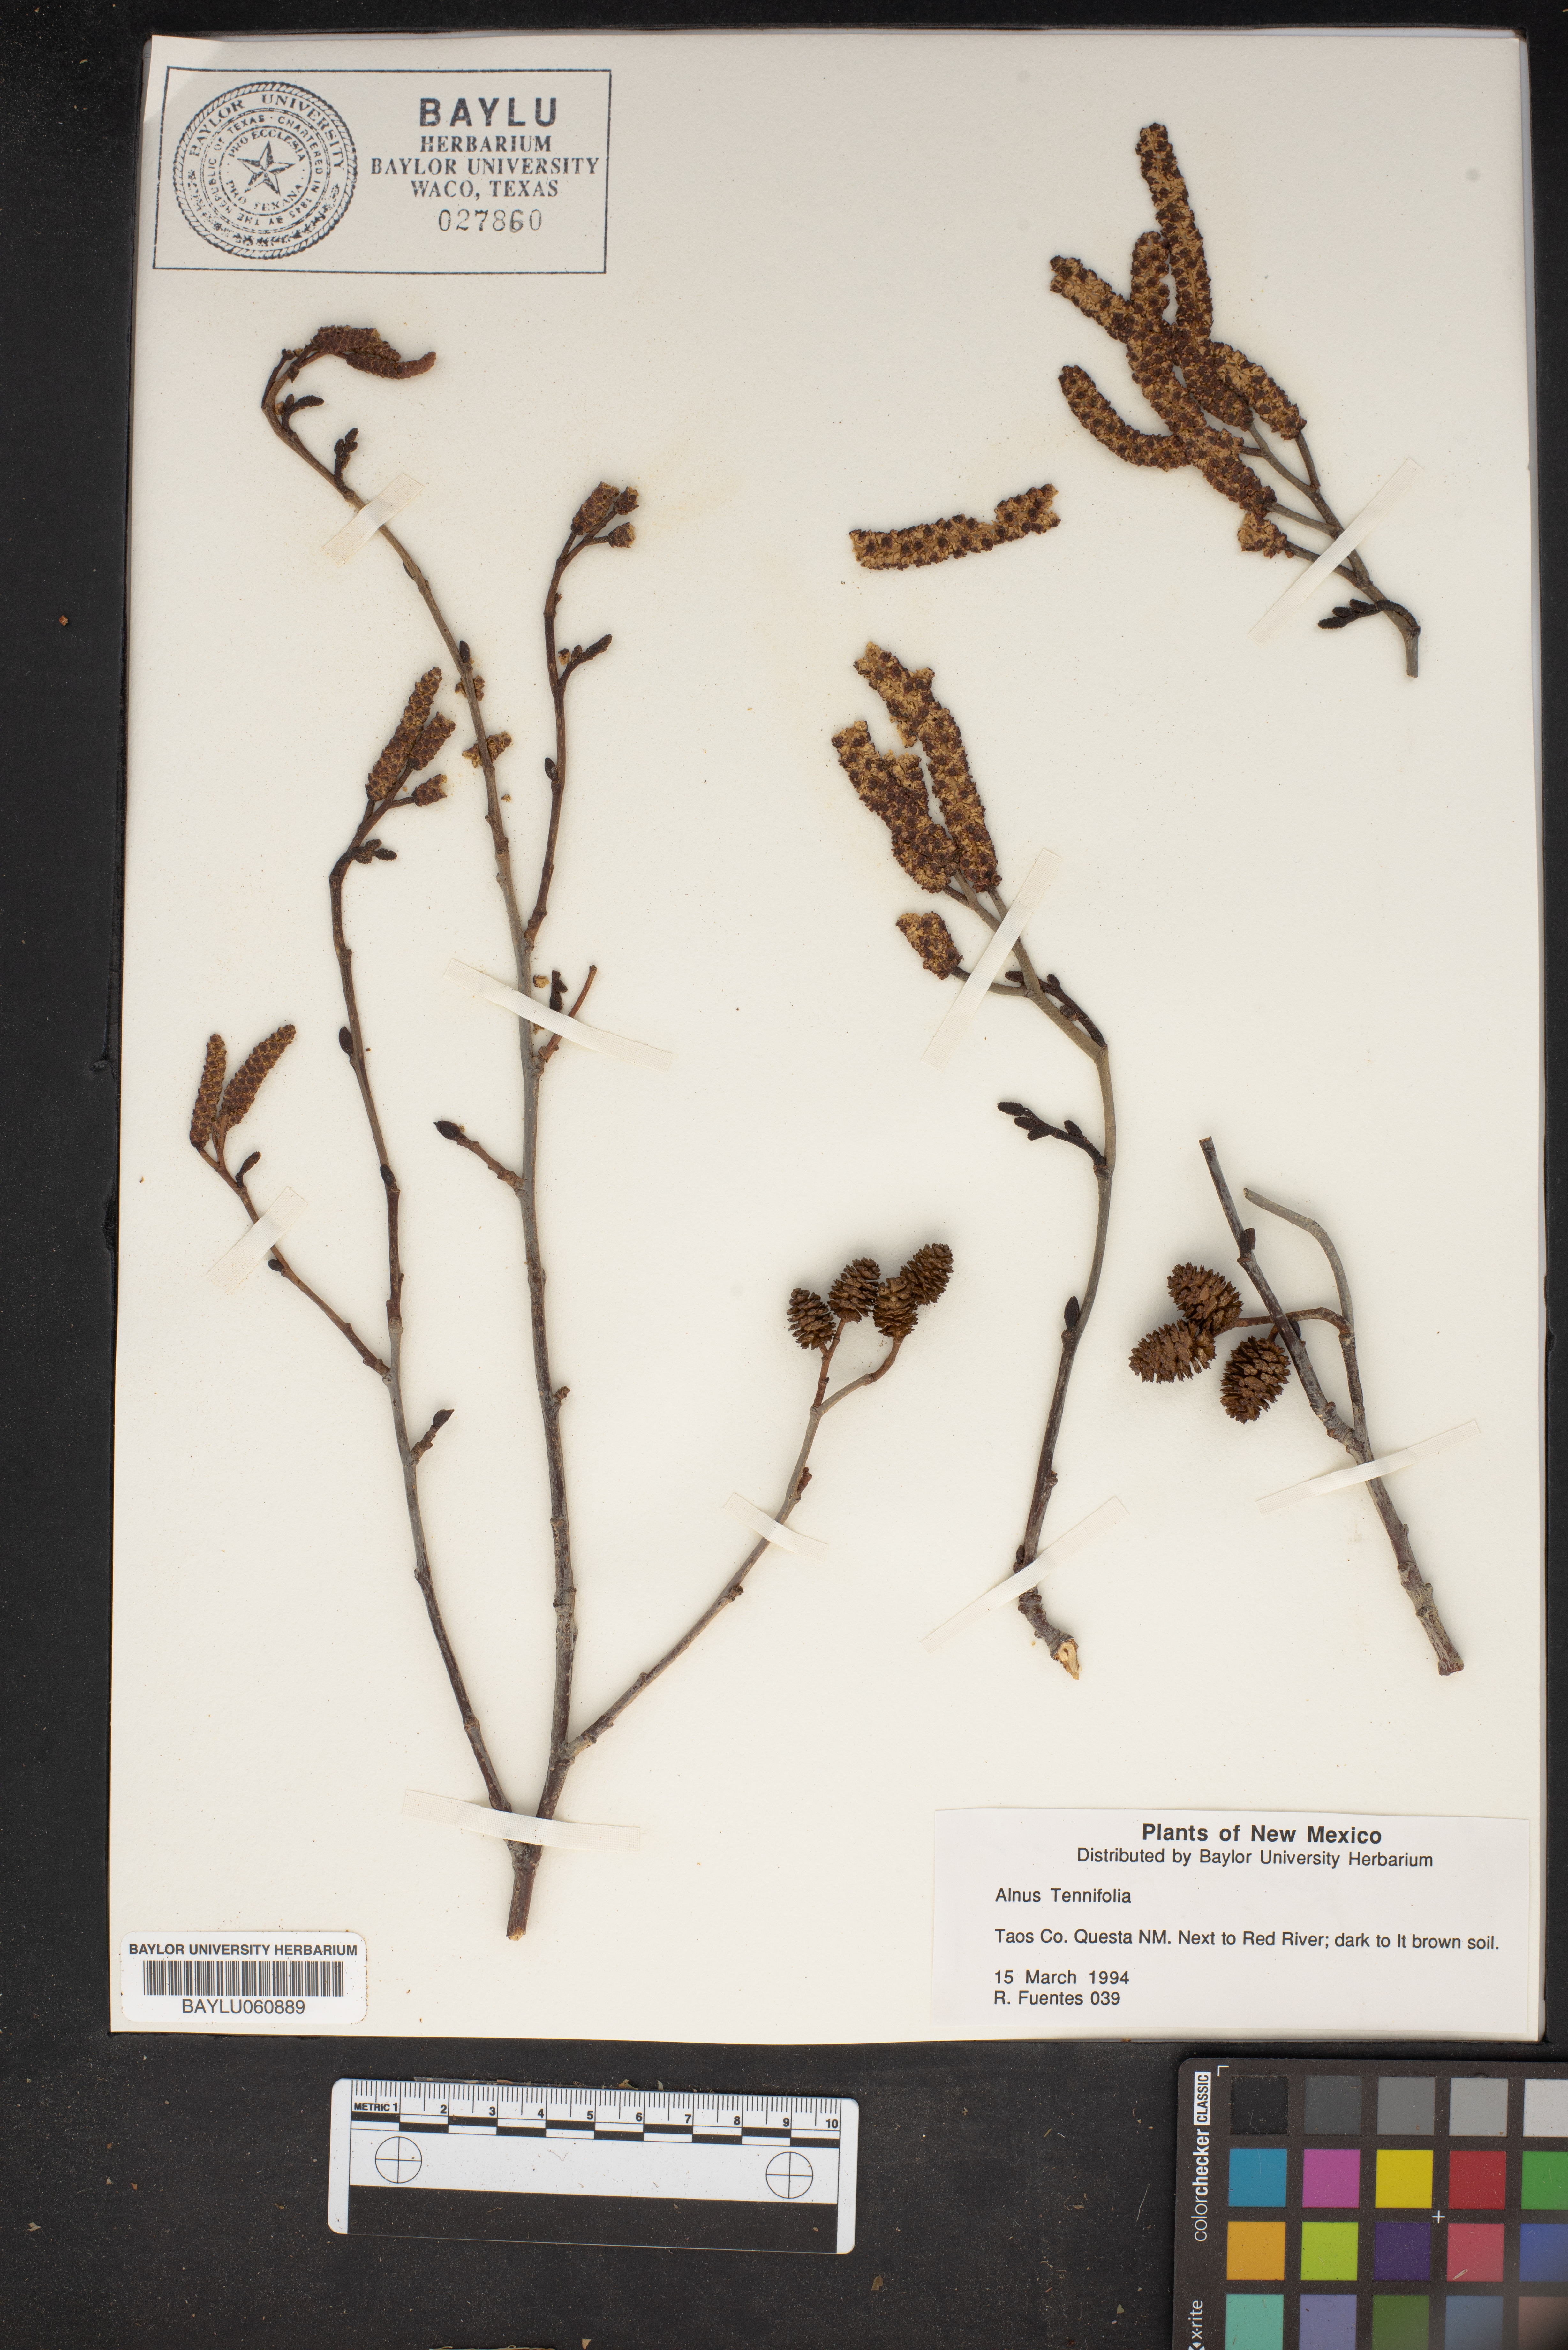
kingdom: Plantae
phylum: Tracheophyta
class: Magnoliopsida
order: Fagales
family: Betulaceae
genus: Alnus
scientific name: Alnus incana
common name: Grey alder
